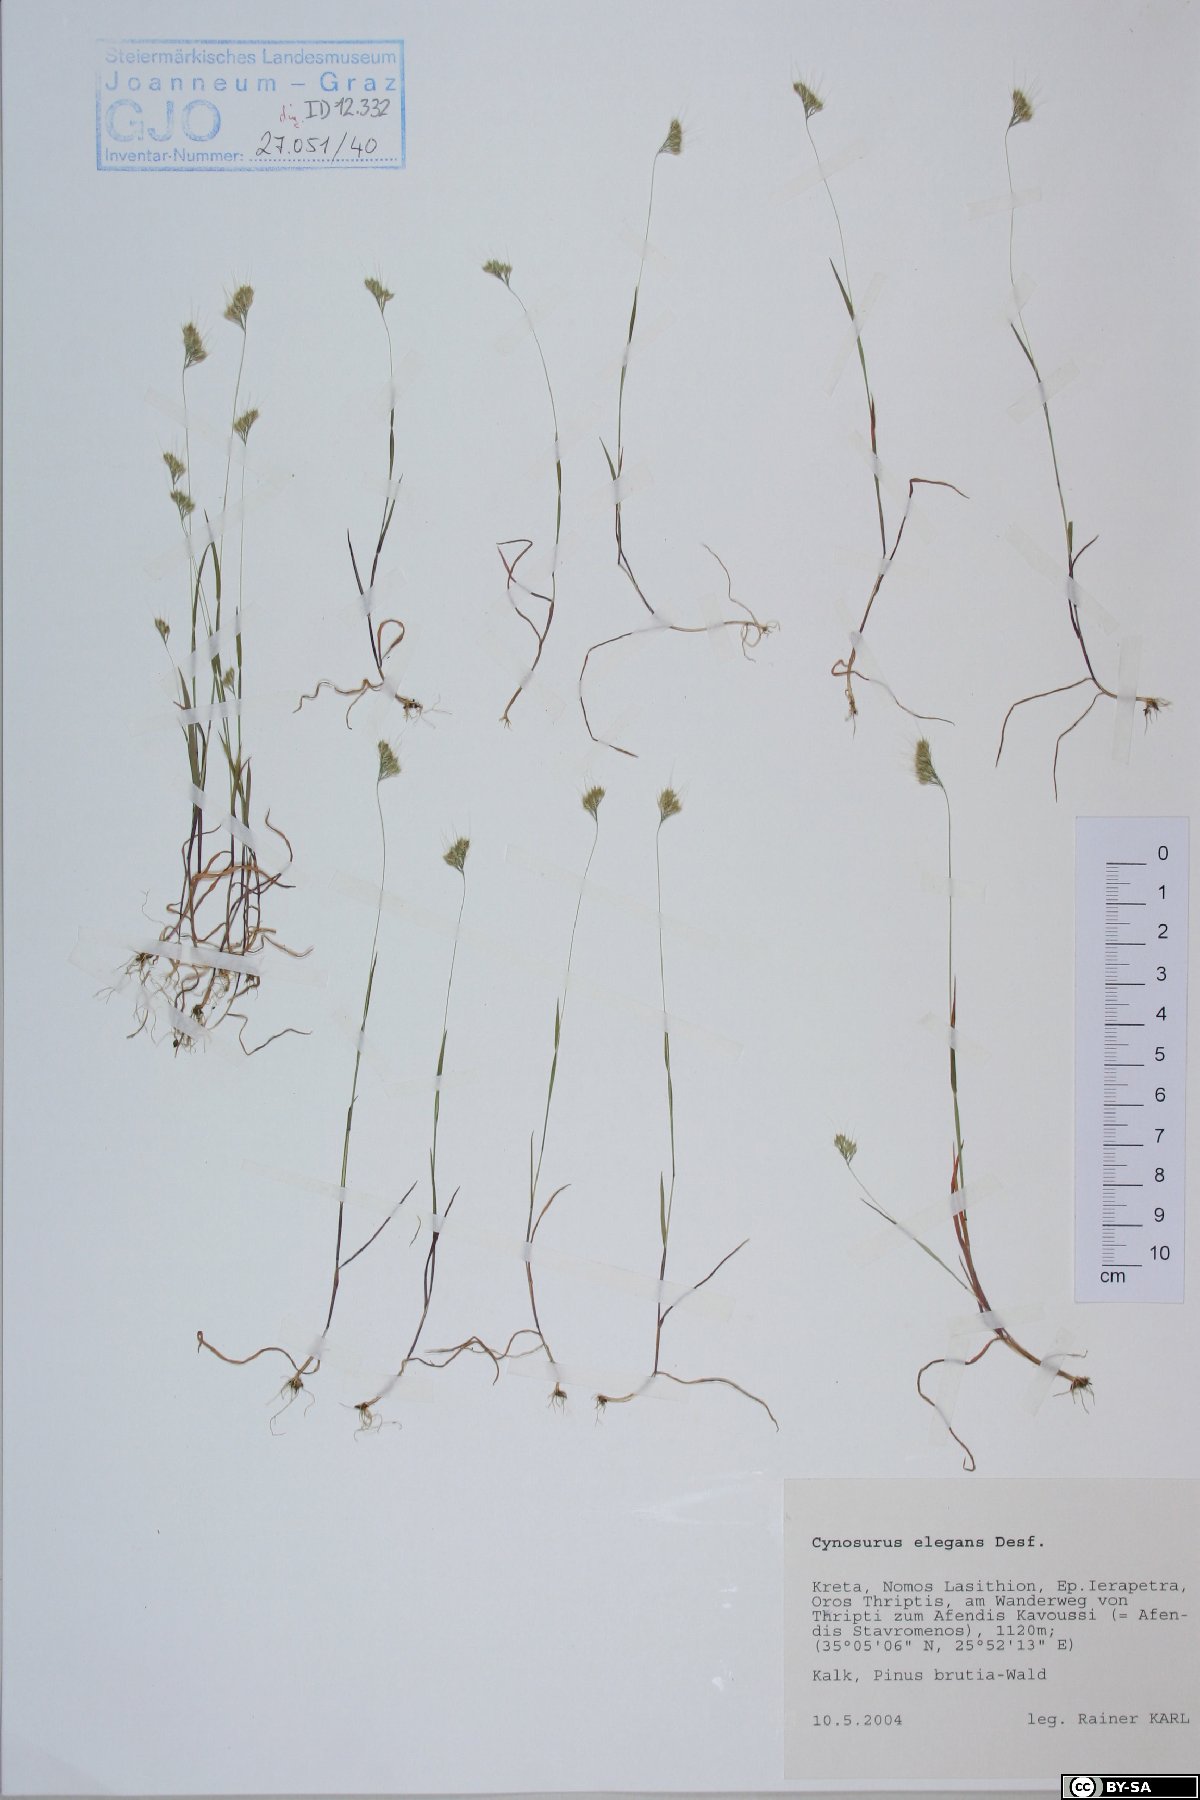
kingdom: Plantae
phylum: Tracheophyta
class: Liliopsida
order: Poales
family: Poaceae
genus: Cynosurus
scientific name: Cynosurus elegans
